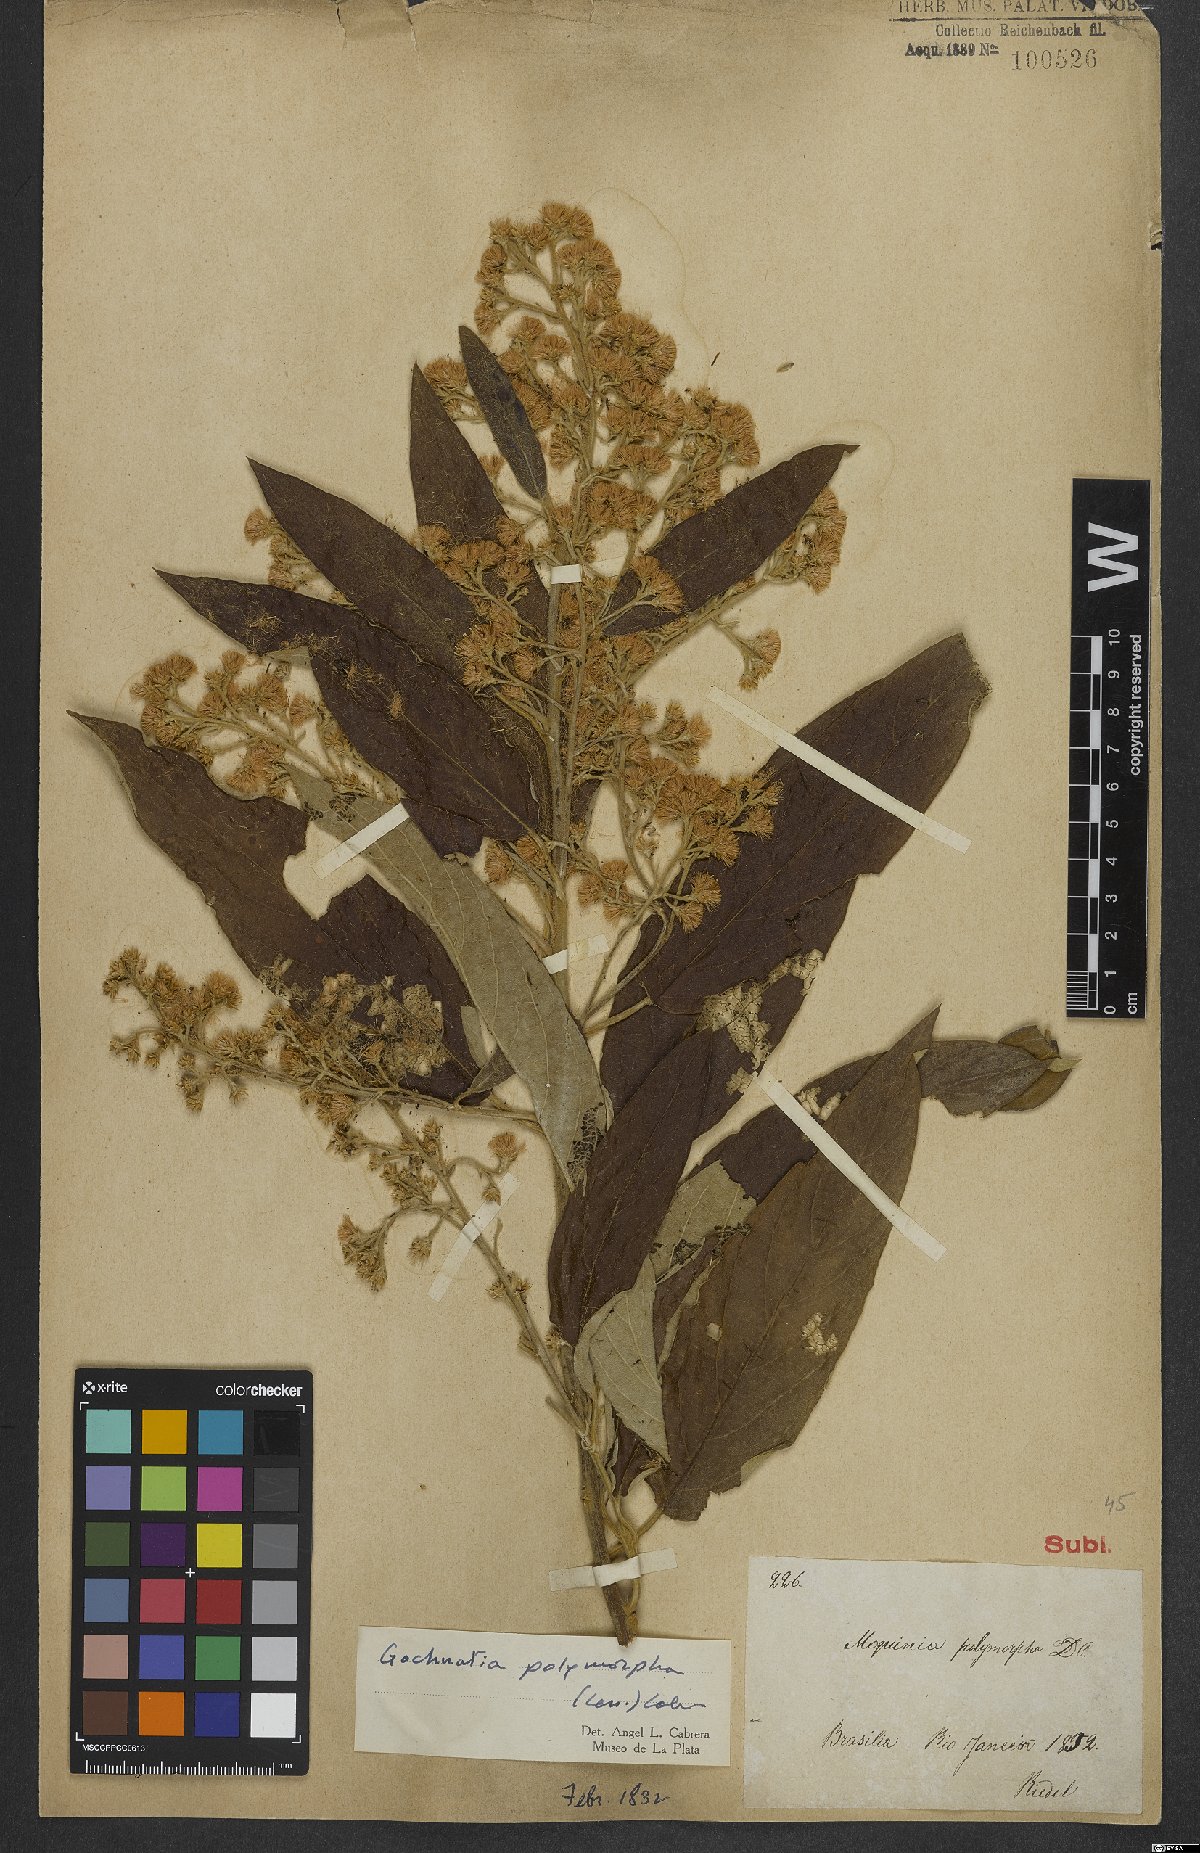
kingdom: Plantae
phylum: Tracheophyta
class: Magnoliopsida
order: Asterales
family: Asteraceae
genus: Moquiniastrum
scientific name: Moquiniastrum polymorphum
